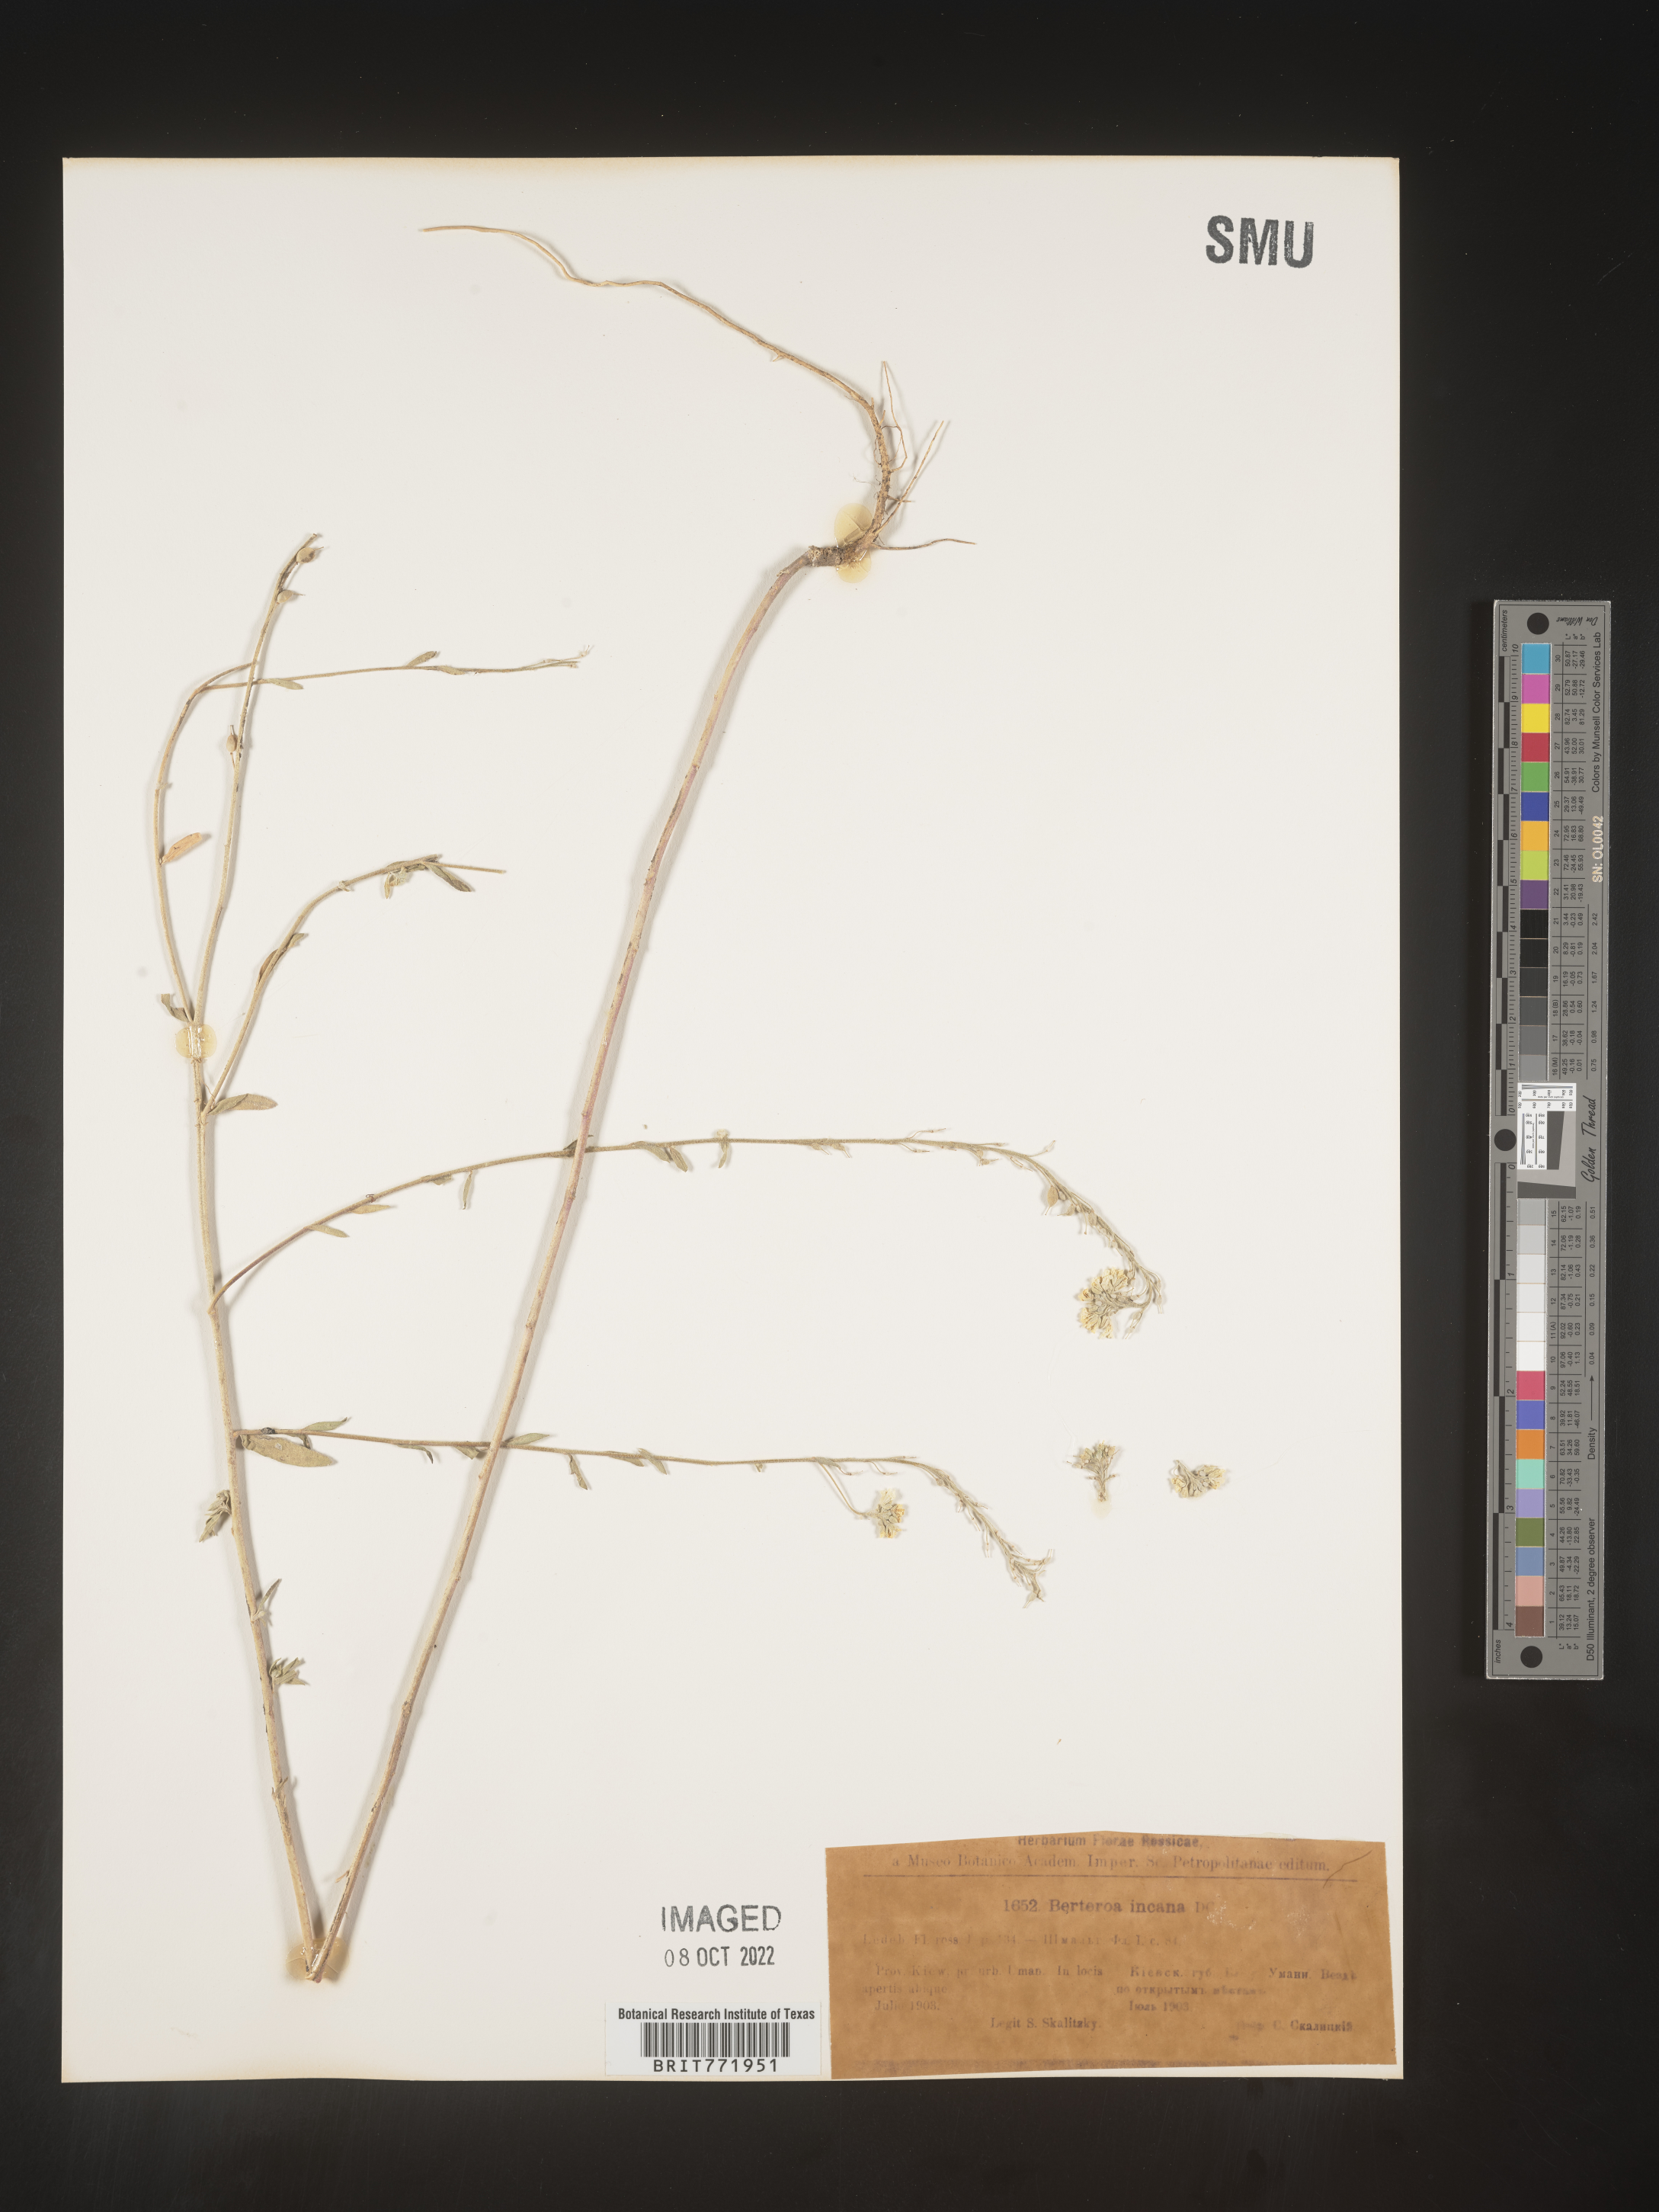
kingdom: Plantae
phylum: Tracheophyta
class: Magnoliopsida
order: Brassicales
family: Brassicaceae
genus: Berteroa
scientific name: Berteroa
